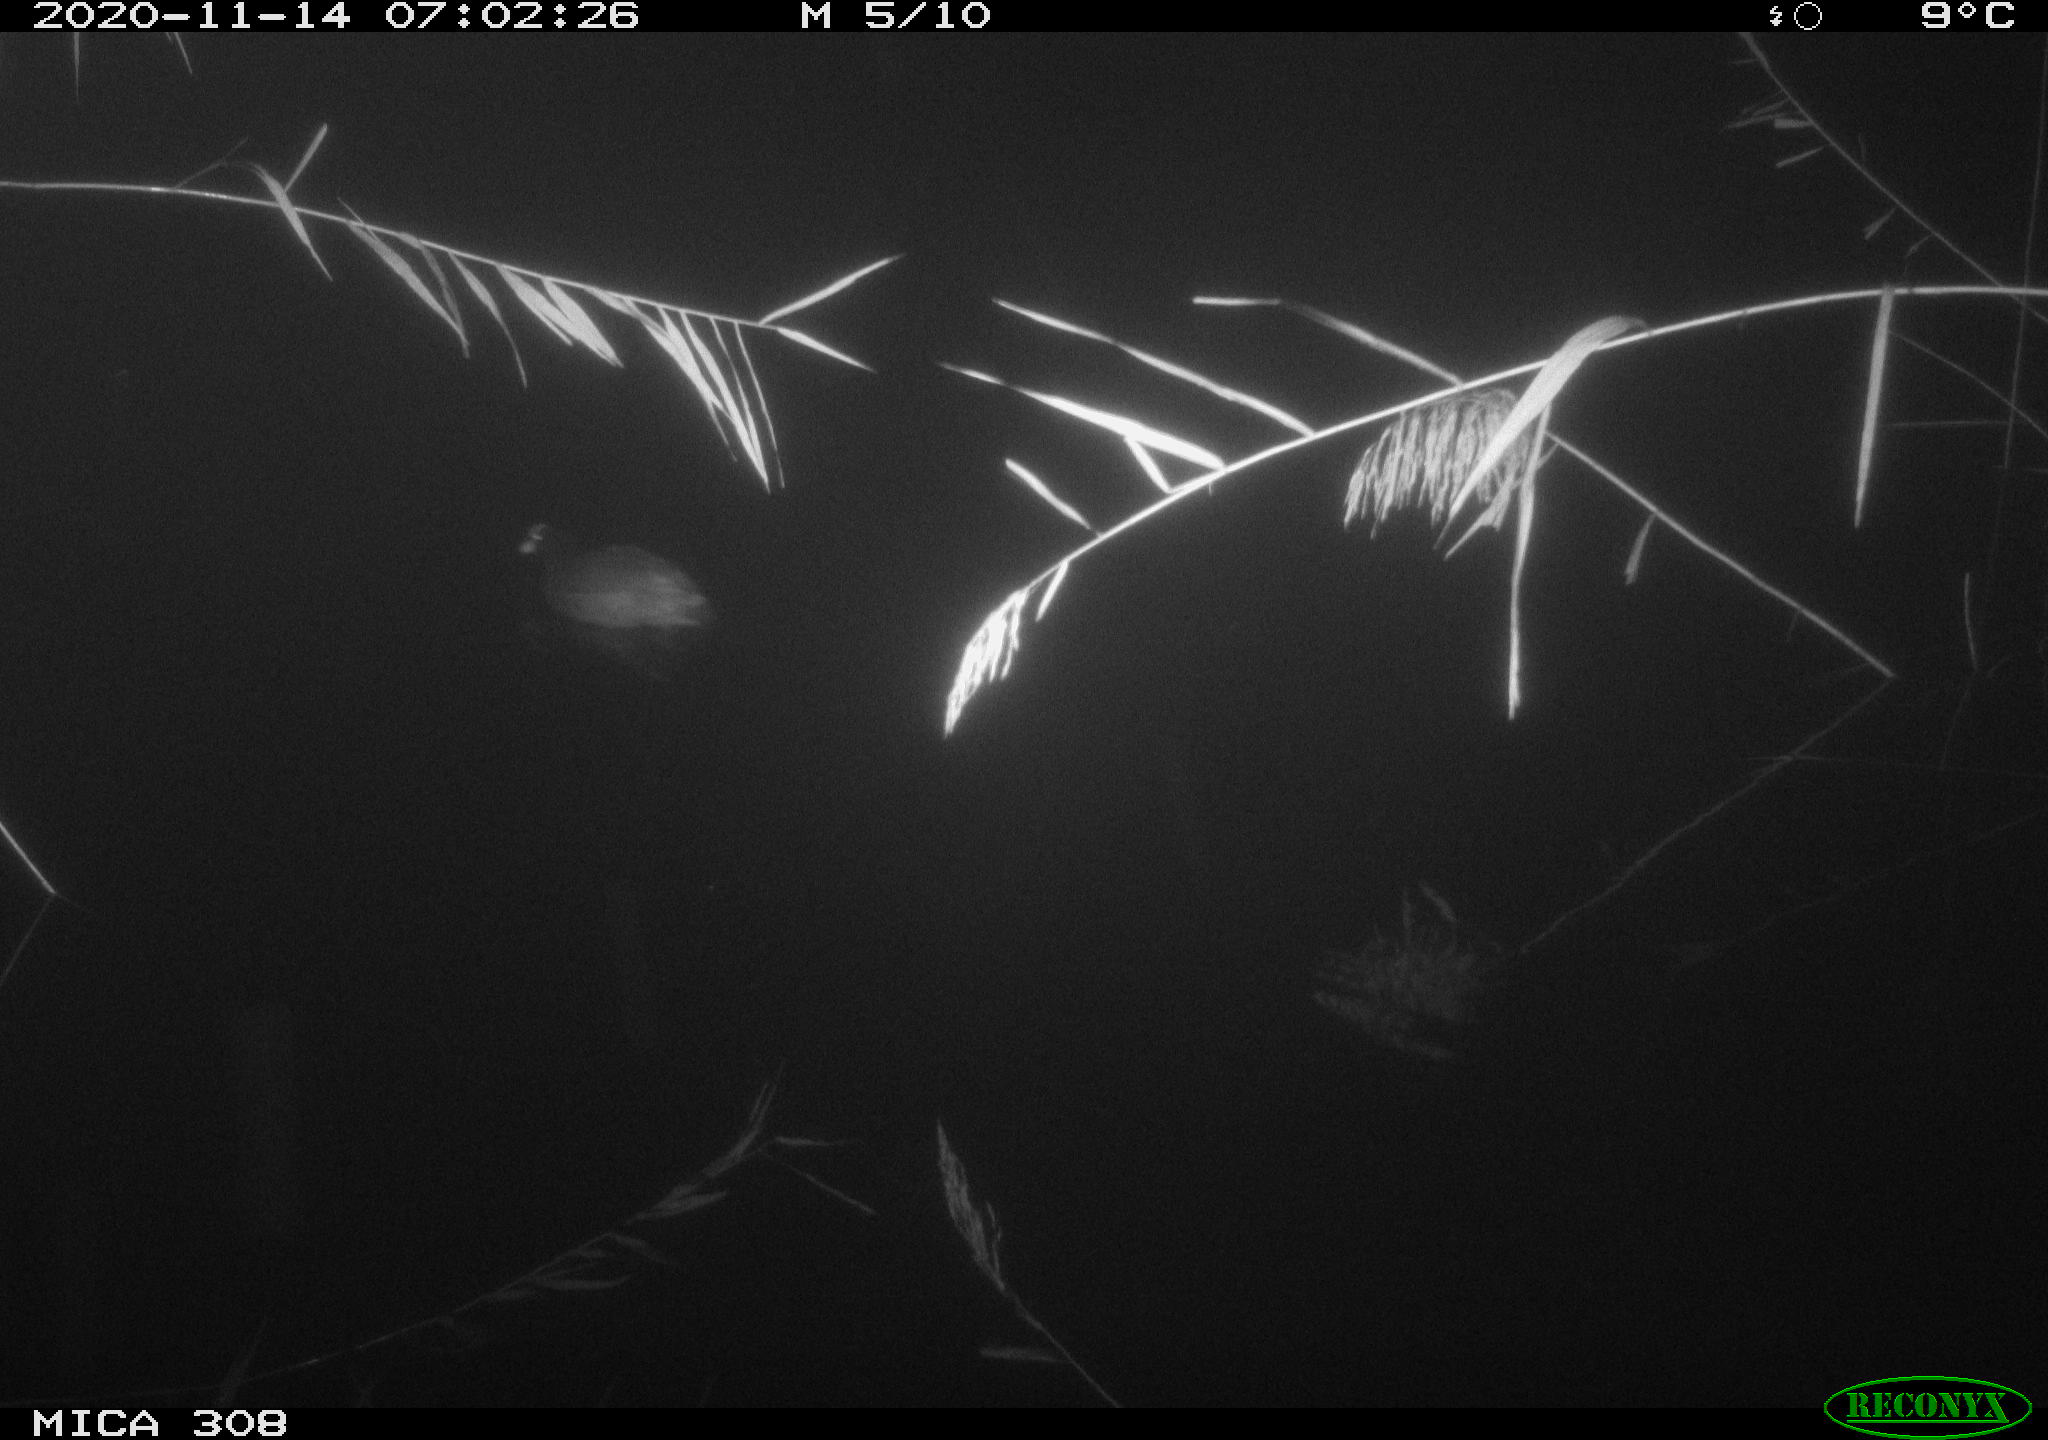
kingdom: Animalia
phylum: Chordata
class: Aves
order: Gruiformes
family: Rallidae
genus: Fulica
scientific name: Fulica atra
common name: Eurasian coot
